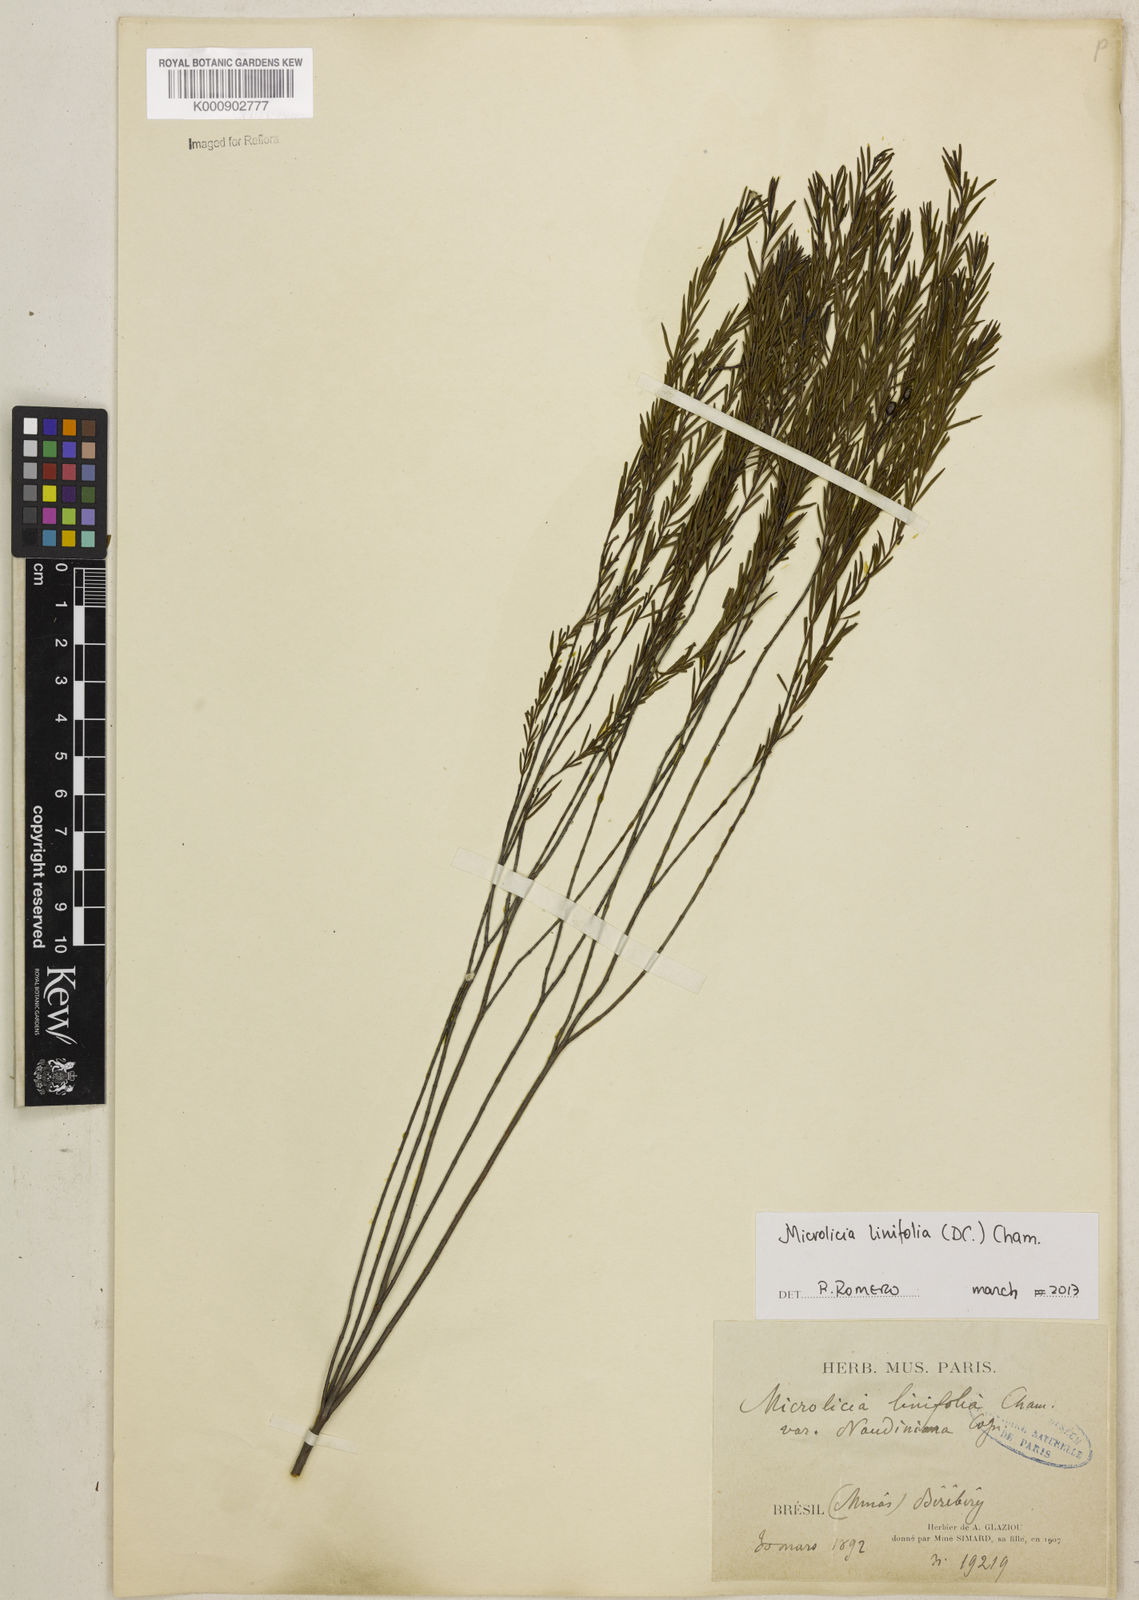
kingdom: Plantae
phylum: Tracheophyta
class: Magnoliopsida
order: Myrtales
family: Melastomataceae
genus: Microlicia
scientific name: Microlicia linifolia
